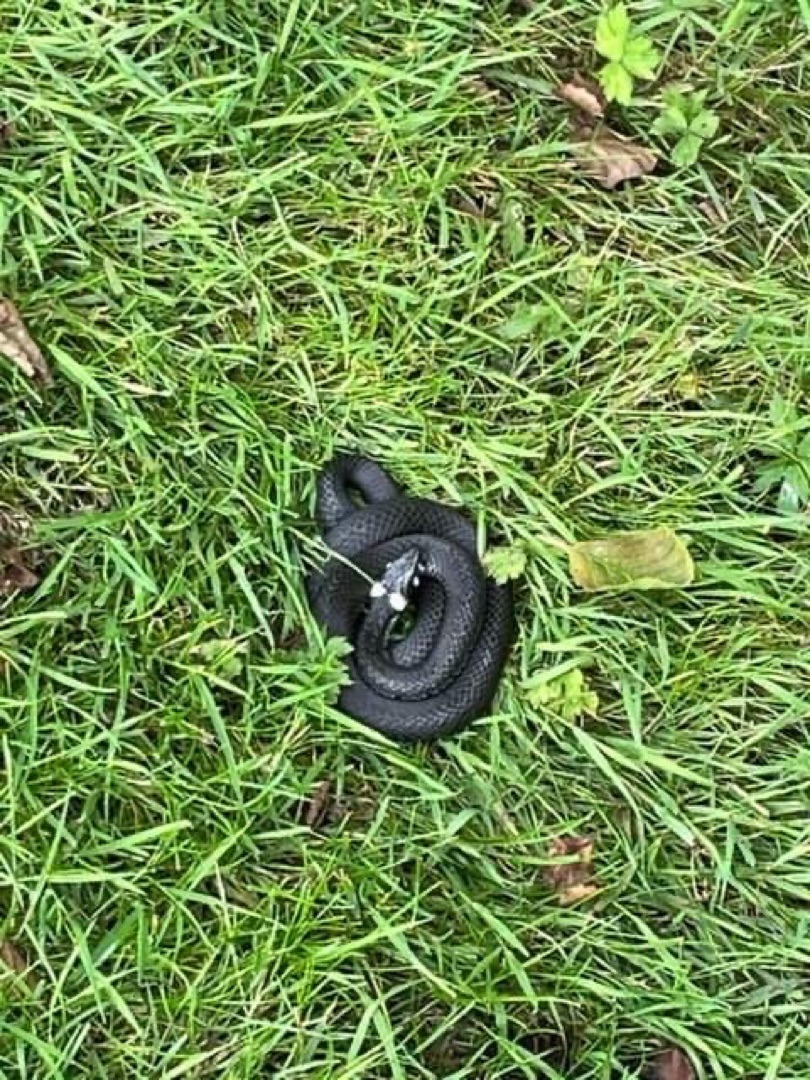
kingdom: Animalia
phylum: Chordata
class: Squamata
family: Colubridae
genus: Natrix
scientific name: Natrix natrix
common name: Snog
